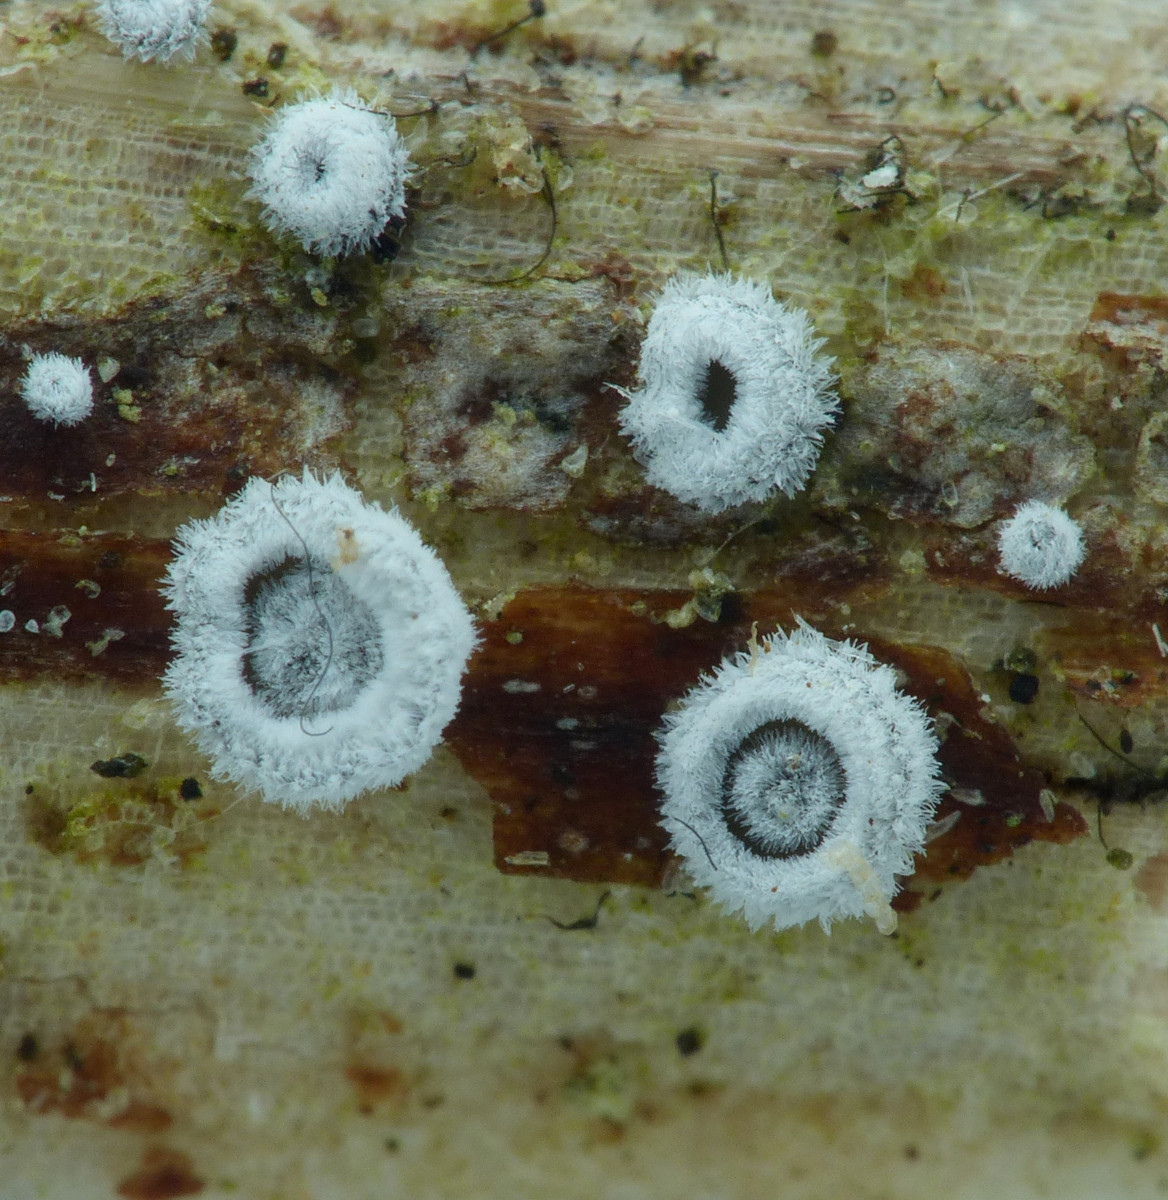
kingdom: Fungi
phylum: Basidiomycota
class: Agaricomycetes
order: Agaricales
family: Niaceae
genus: Lachnella
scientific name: Lachnella alboviolascens
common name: grå frynserede
